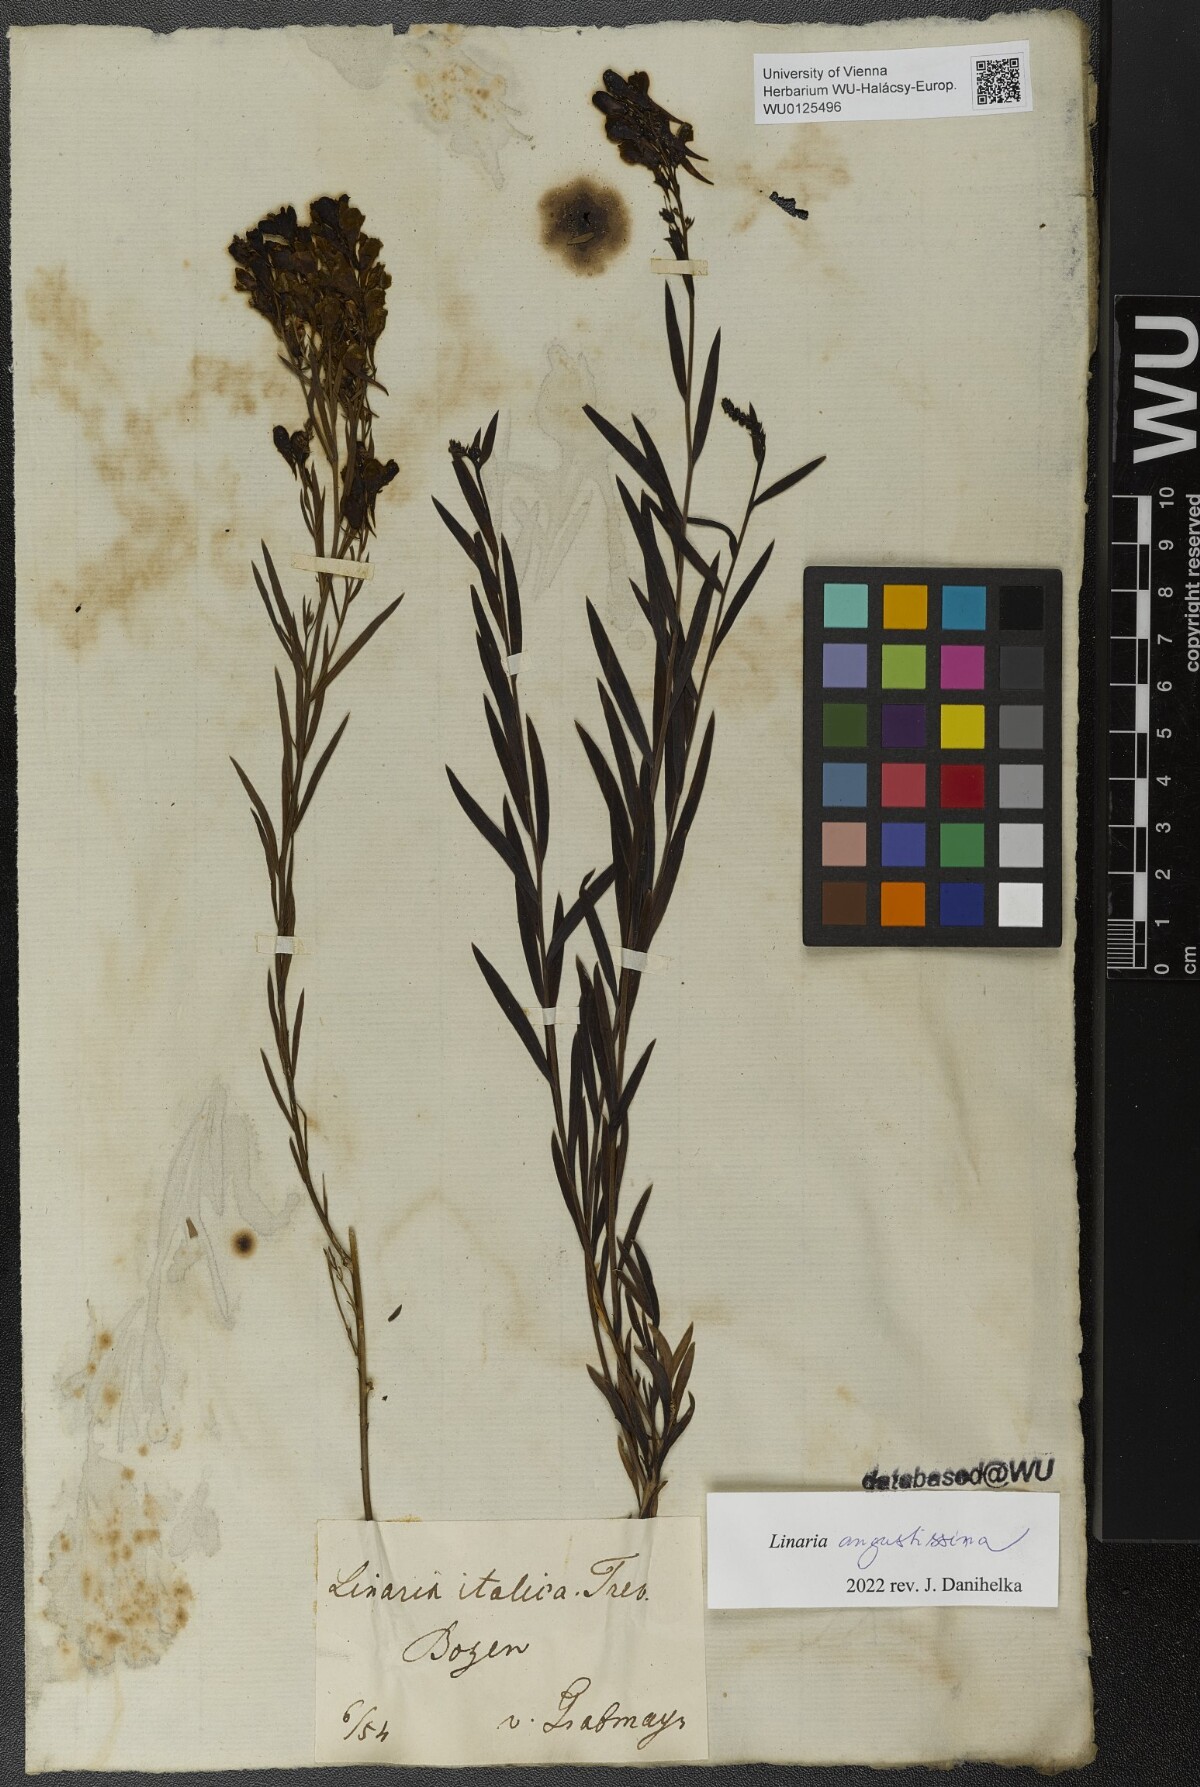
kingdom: Plantae
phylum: Tracheophyta
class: Magnoliopsida
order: Lamiales
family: Plantaginaceae
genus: Linaria
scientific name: Linaria angustissima
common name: Italian toadflax
